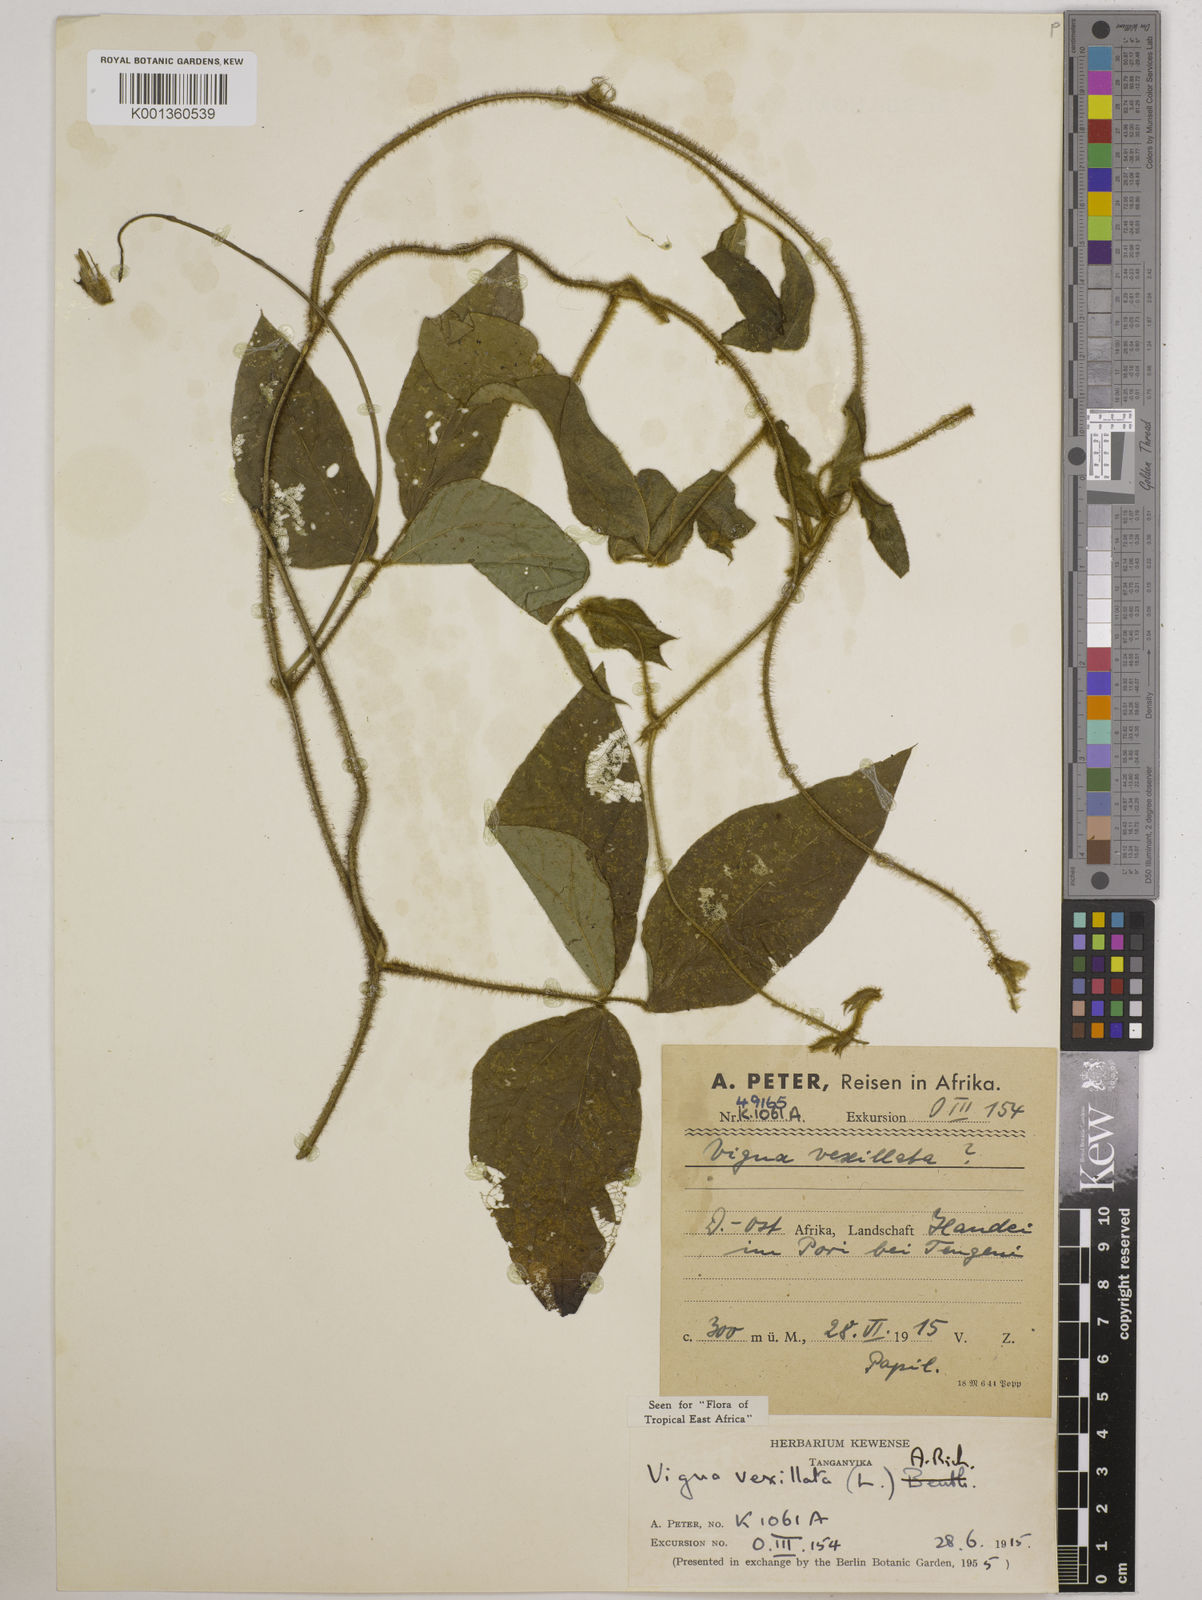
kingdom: Plantae
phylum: Tracheophyta
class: Magnoliopsida
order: Fabales
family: Fabaceae
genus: Vigna
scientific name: Vigna vexillata
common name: Zombi pea
